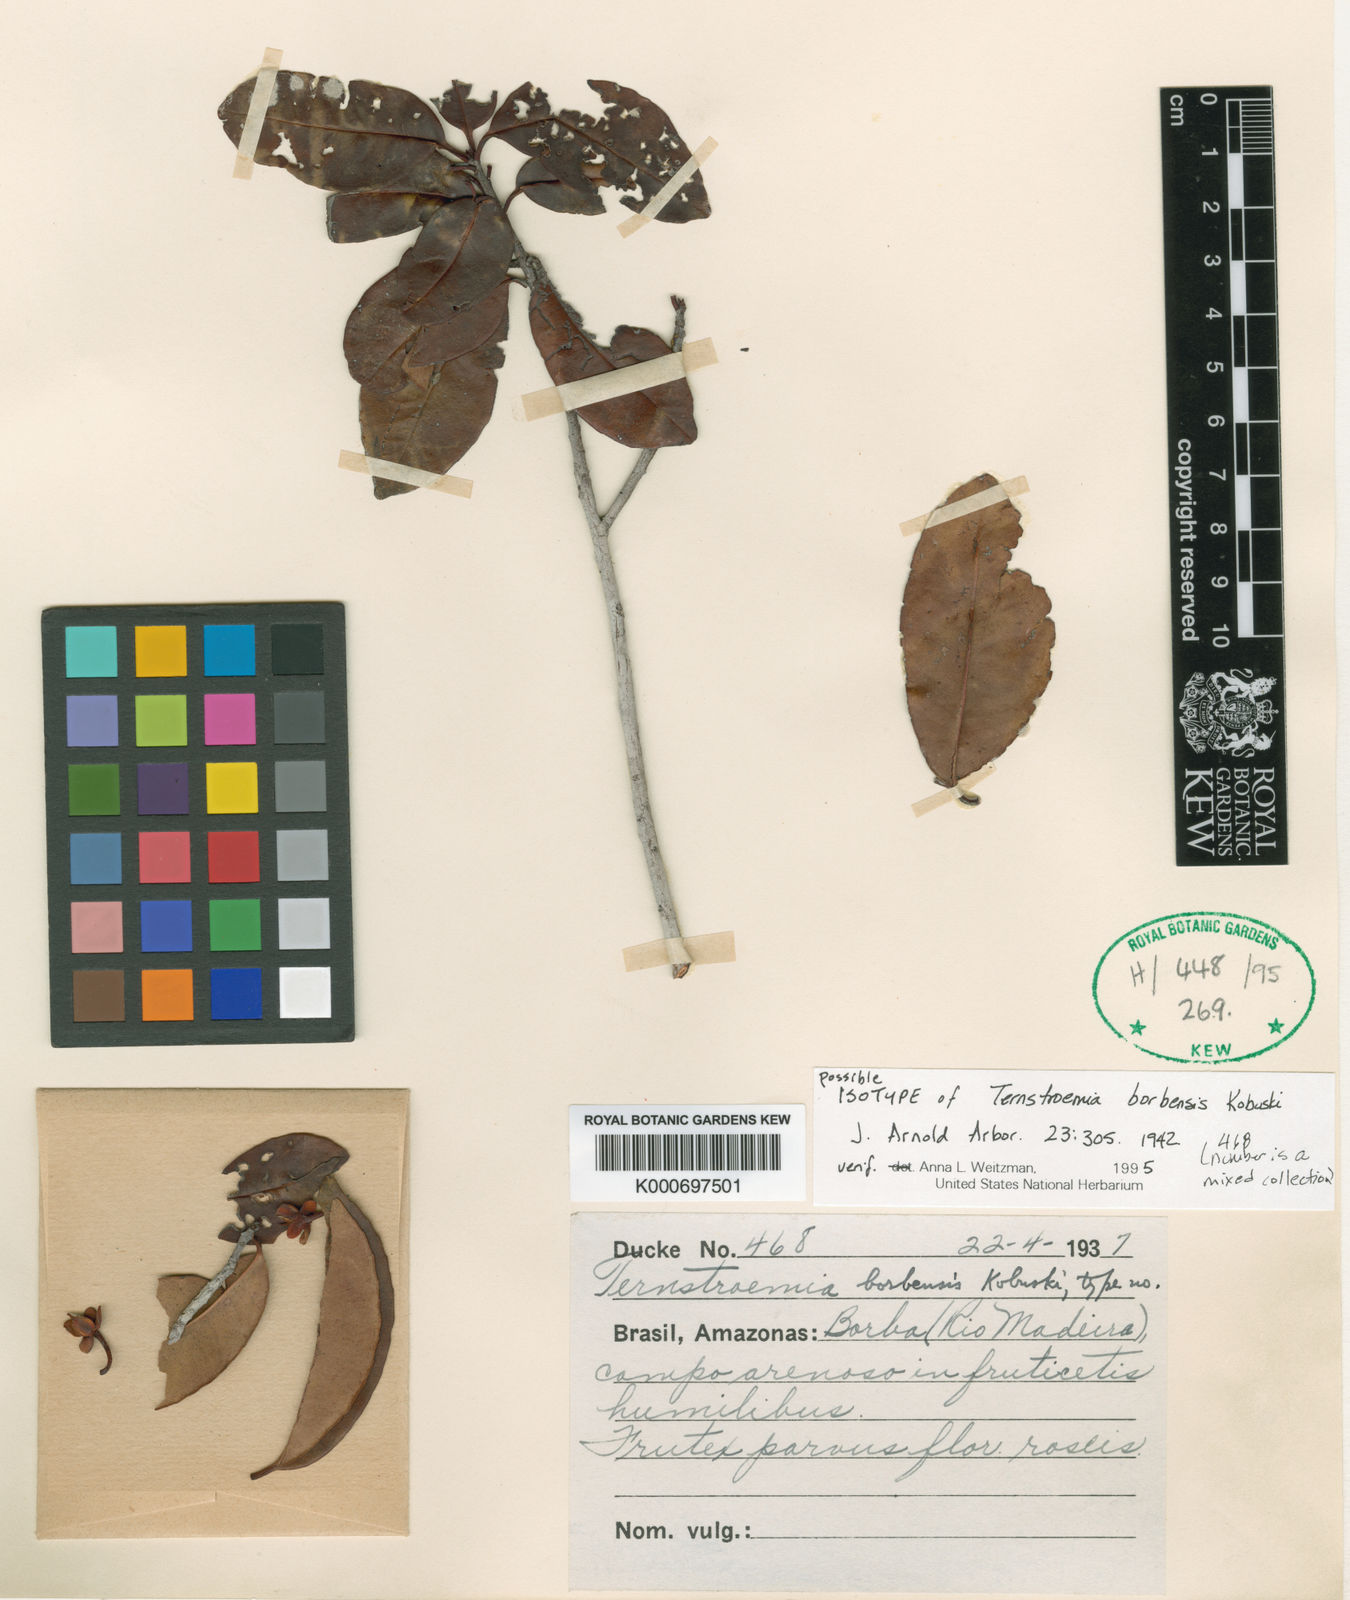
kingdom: Plantae
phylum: Tracheophyta
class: Magnoliopsida
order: Ericales
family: Pentaphylacaceae
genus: Ternstroemia
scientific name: Ternstroemia dentata
